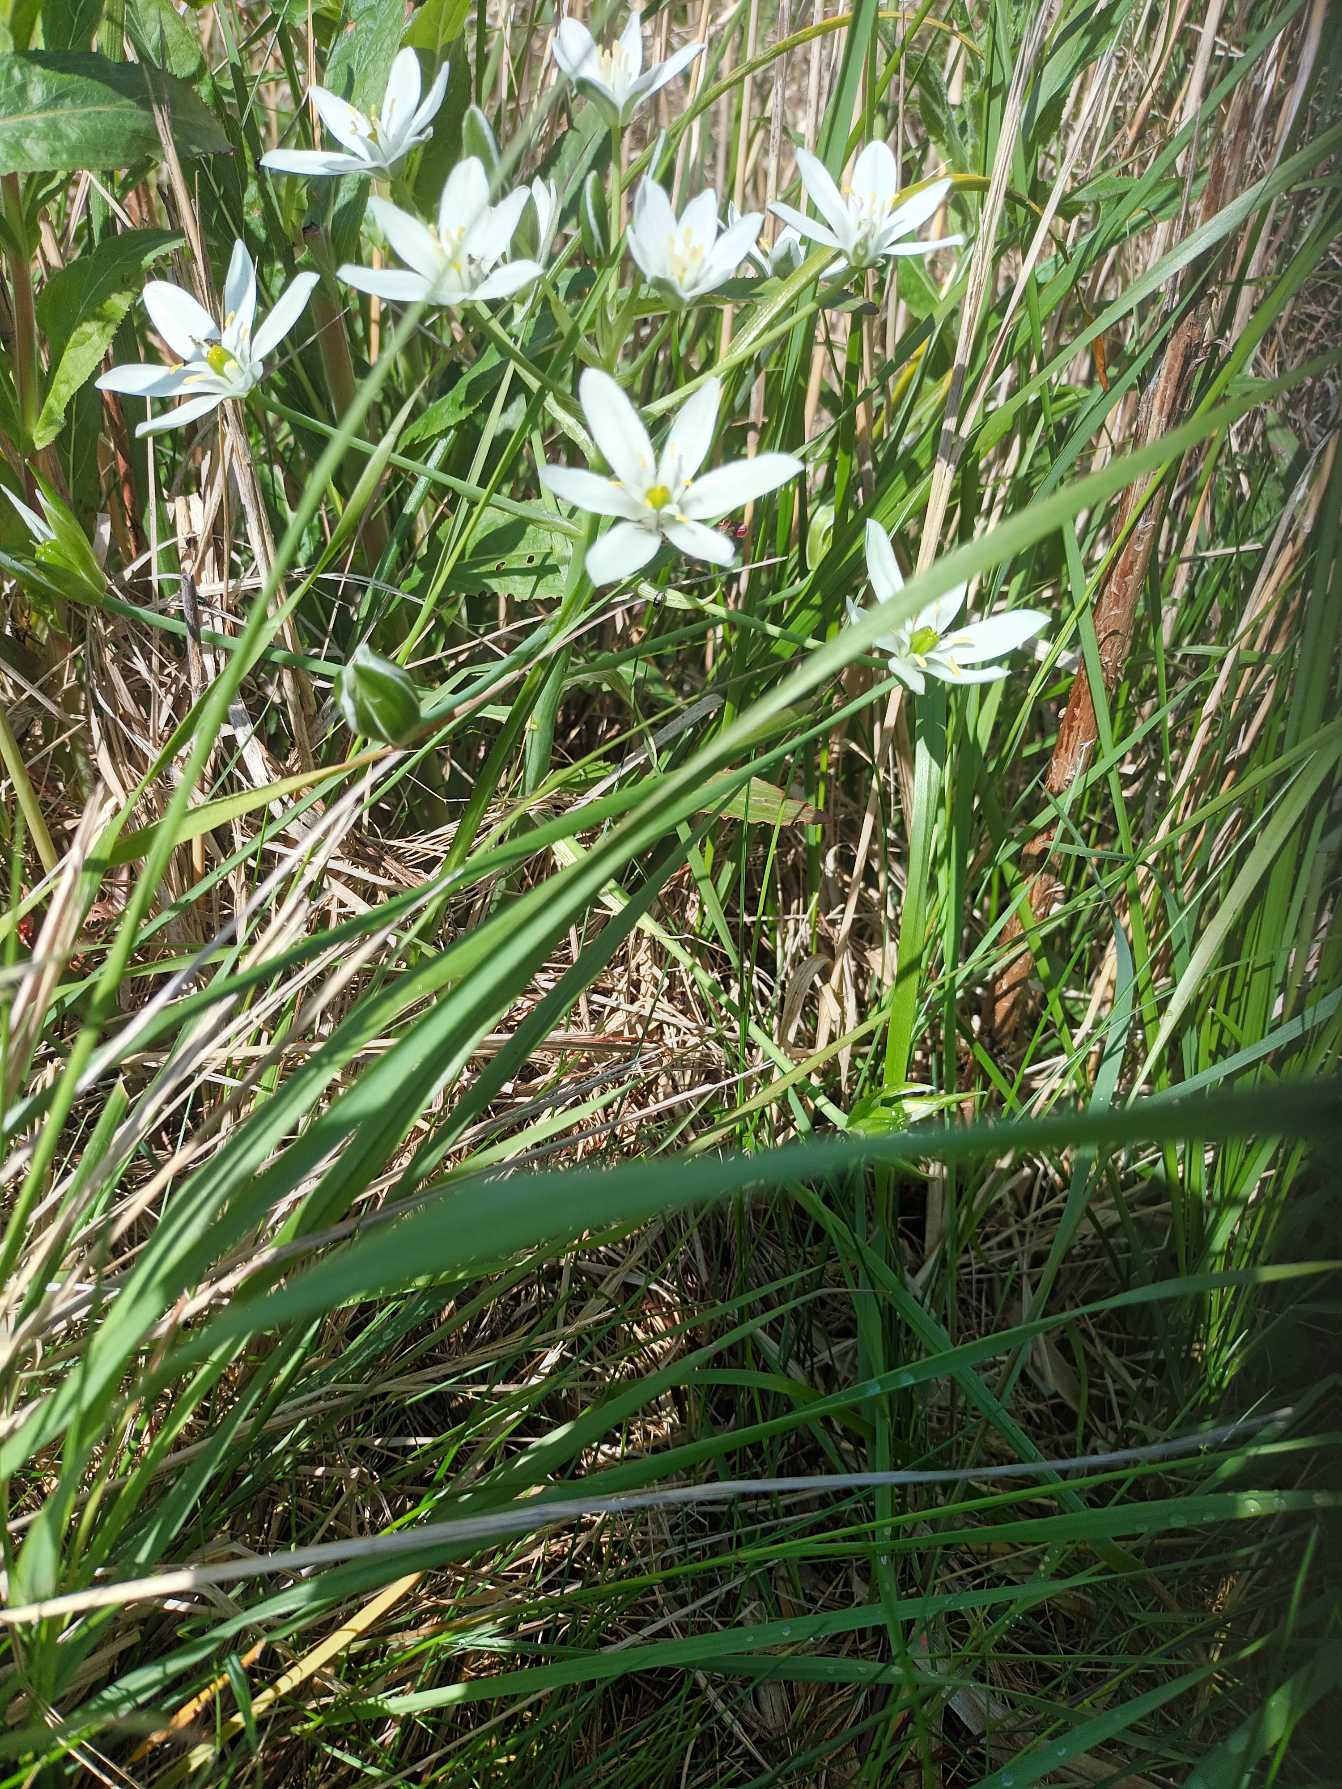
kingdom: Plantae
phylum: Tracheophyta
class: Liliopsida
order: Asparagales
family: Asparagaceae
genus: Ornithogalum
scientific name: Ornithogalum divergens
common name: Udspærret fuglemælk
